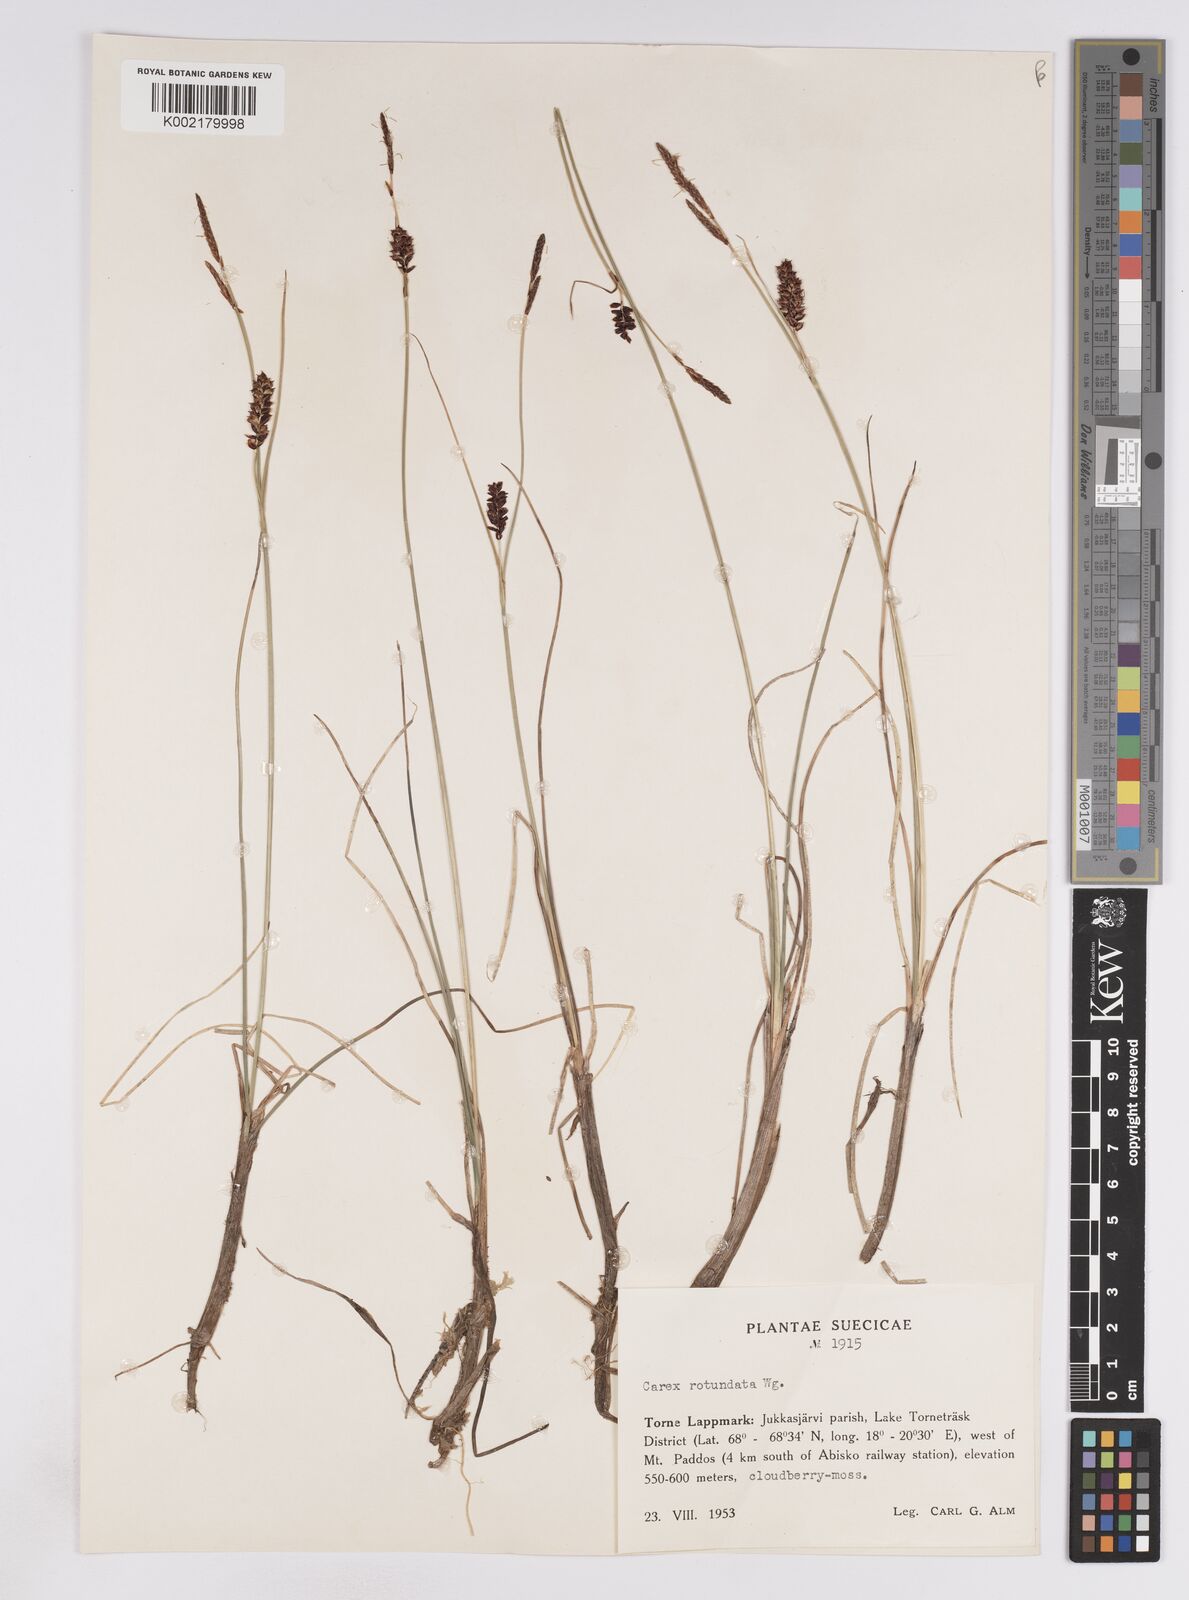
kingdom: Plantae
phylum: Tracheophyta
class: Liliopsida
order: Poales
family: Cyperaceae
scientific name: Cyperaceae
